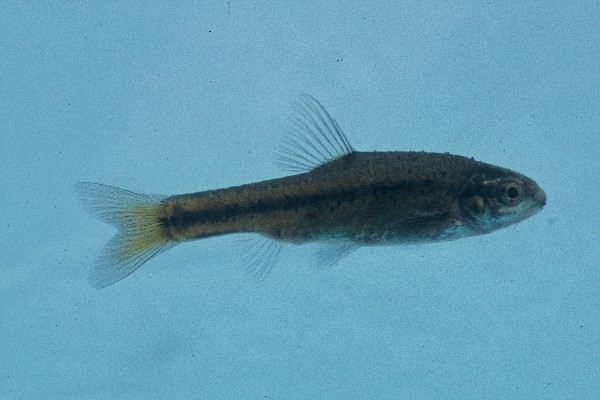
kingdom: Animalia
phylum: Chordata
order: Cypriniformes
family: Cyprinidae
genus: Enteromius
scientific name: Enteromius pallidus
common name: Goldie barb
